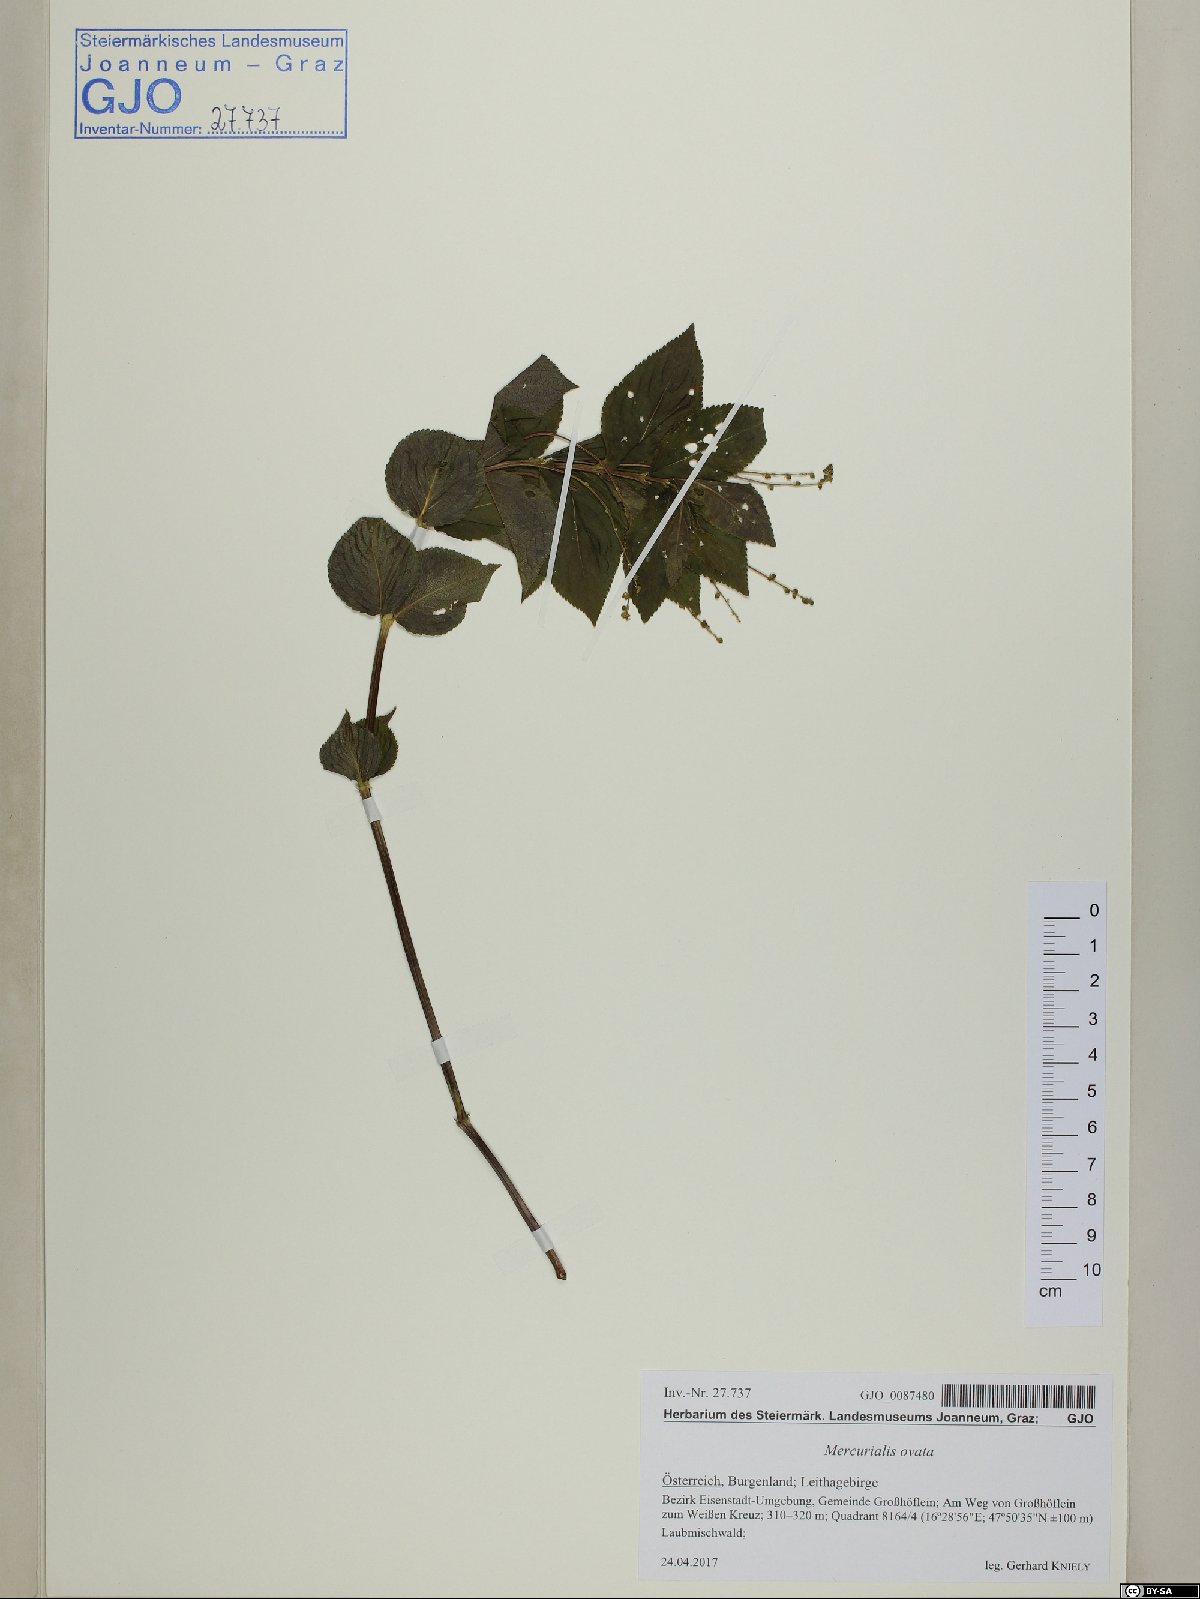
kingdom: Plantae
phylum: Tracheophyta
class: Magnoliopsida
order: Malpighiales
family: Euphorbiaceae
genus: Mercurialis
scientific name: Mercurialis ovata
